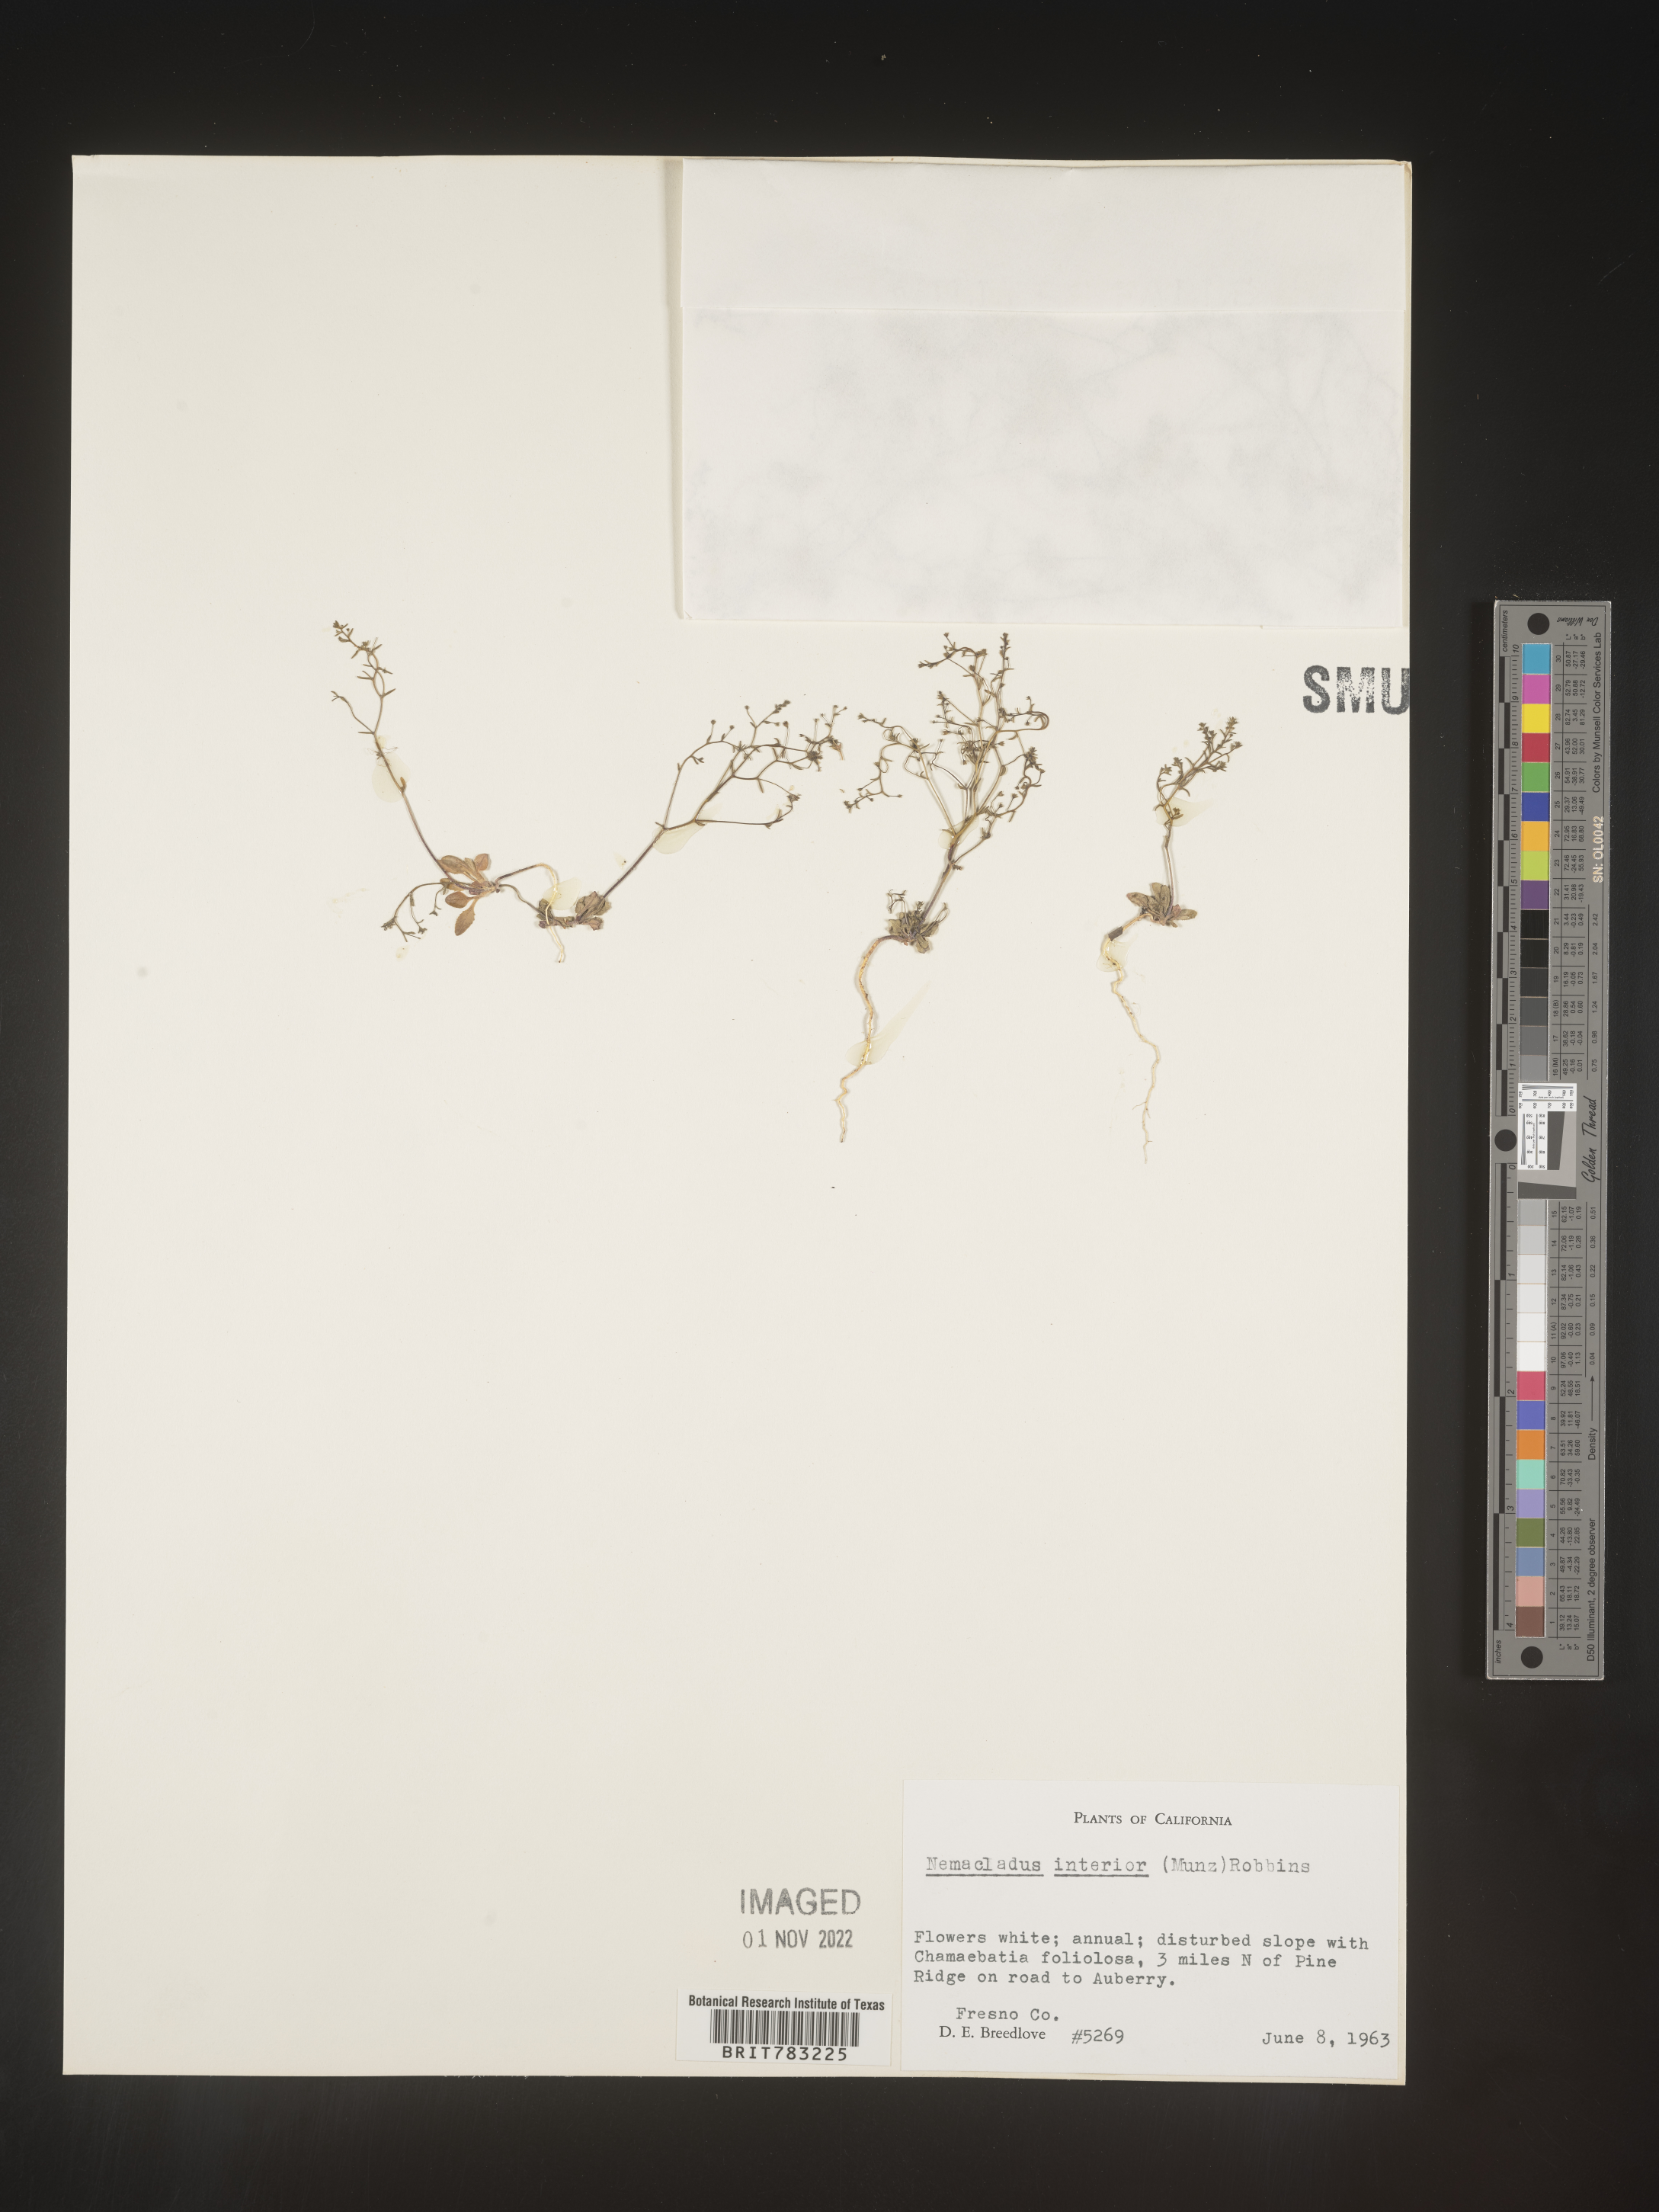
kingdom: Plantae
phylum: Tracheophyta
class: Magnoliopsida
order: Asterales
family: Campanulaceae
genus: Nemacladus
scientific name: Nemacladus
